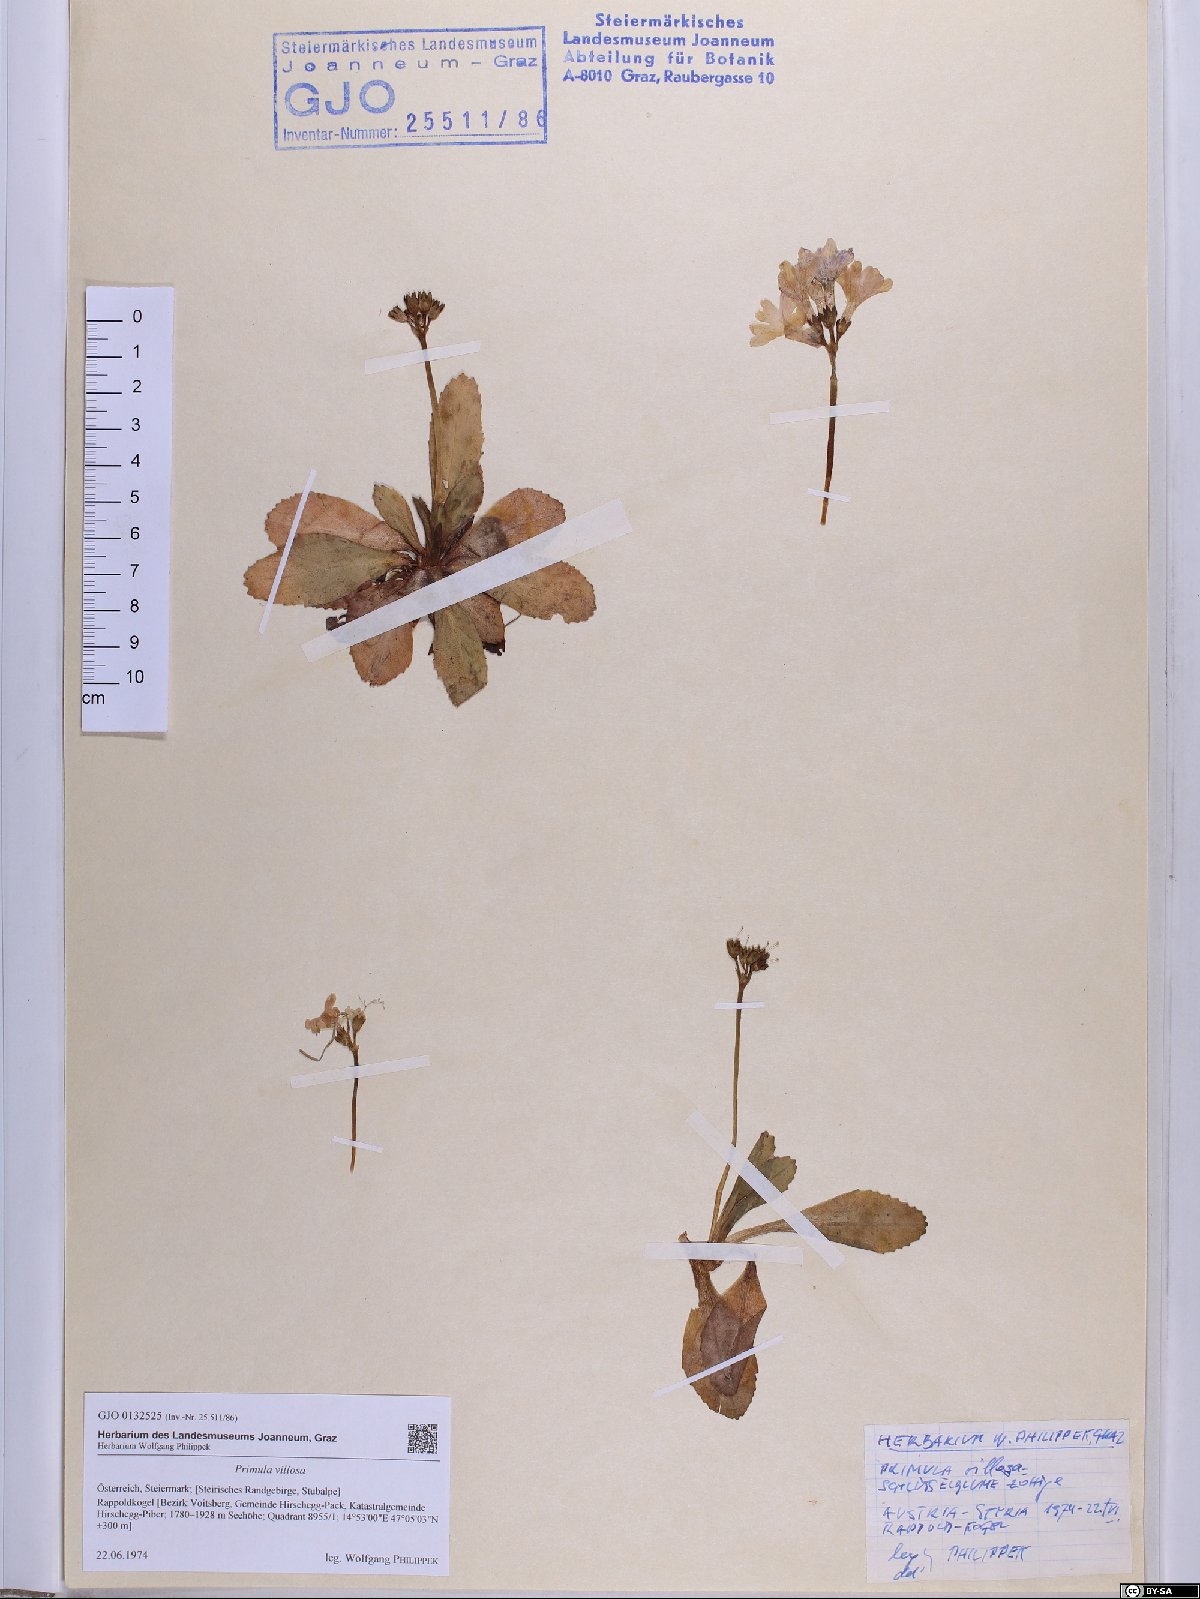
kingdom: Plantae
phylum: Tracheophyta
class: Magnoliopsida
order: Ericales
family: Primulaceae
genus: Primula
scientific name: Primula villosa
